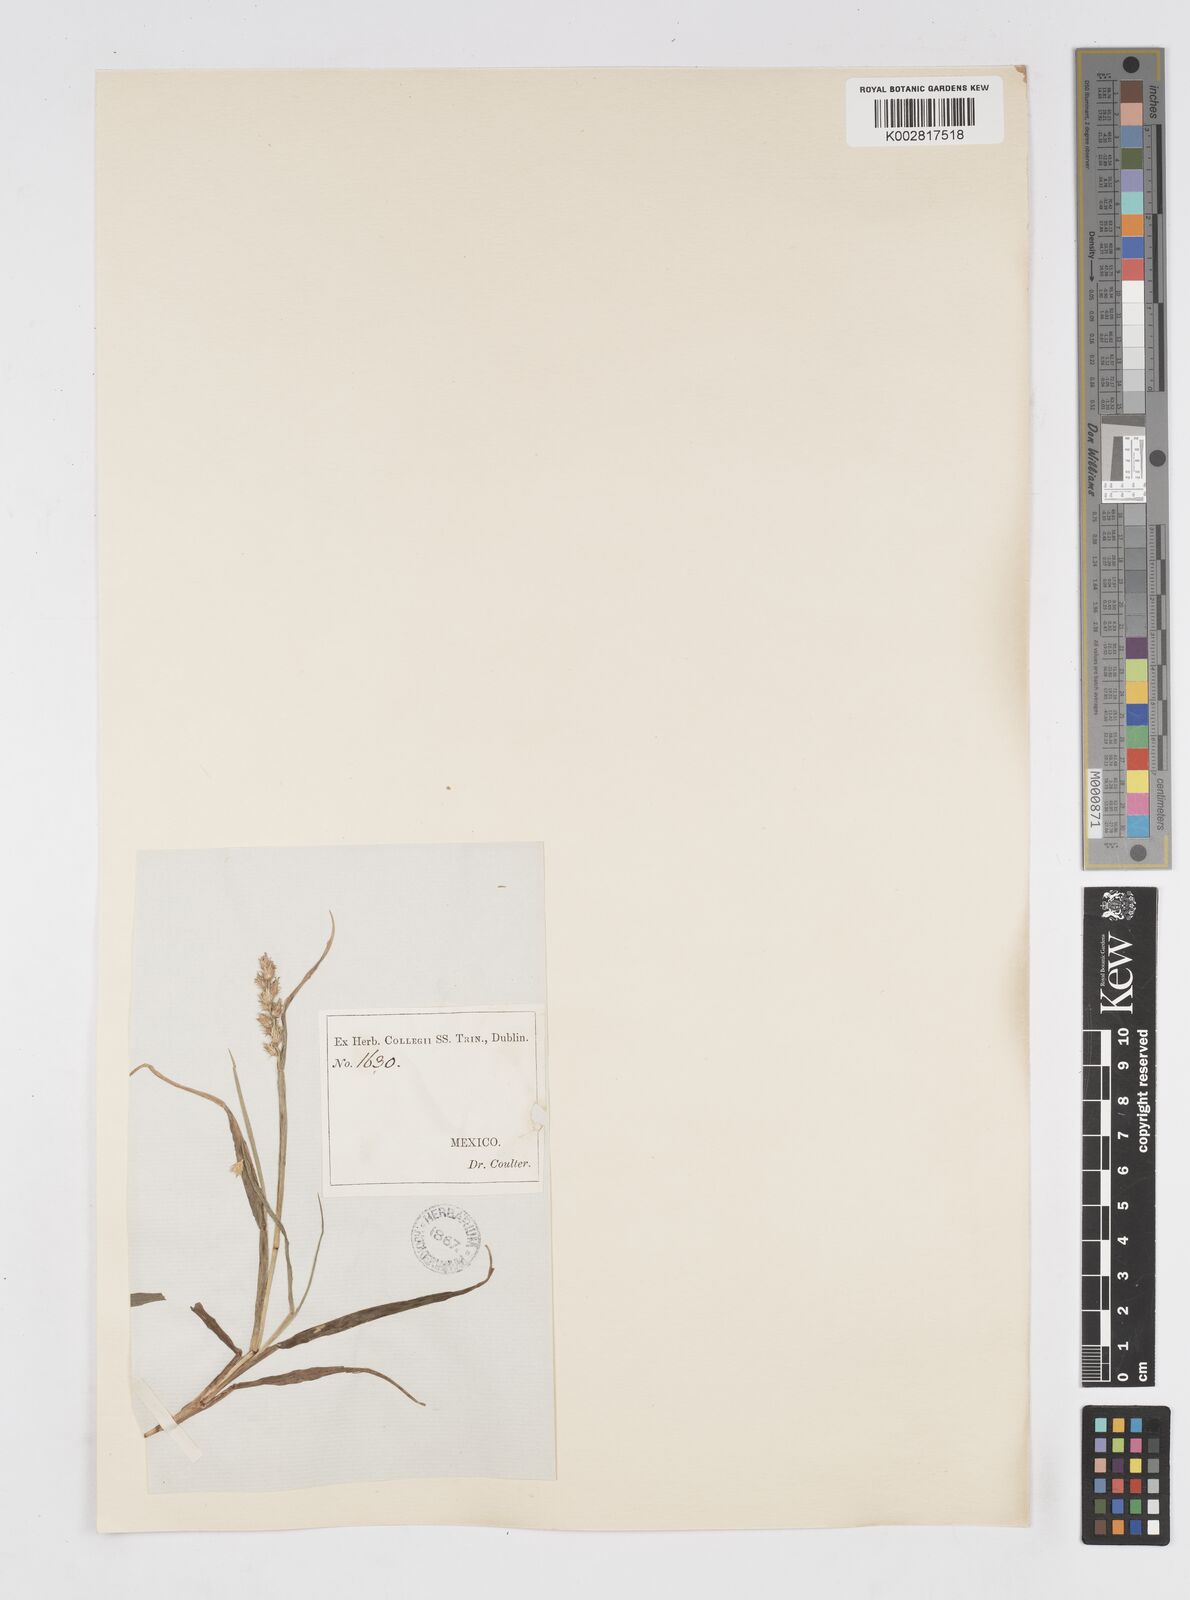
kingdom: Plantae
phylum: Tracheophyta
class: Liliopsida
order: Poales
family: Poaceae
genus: Cenchrus
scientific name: Cenchrus
